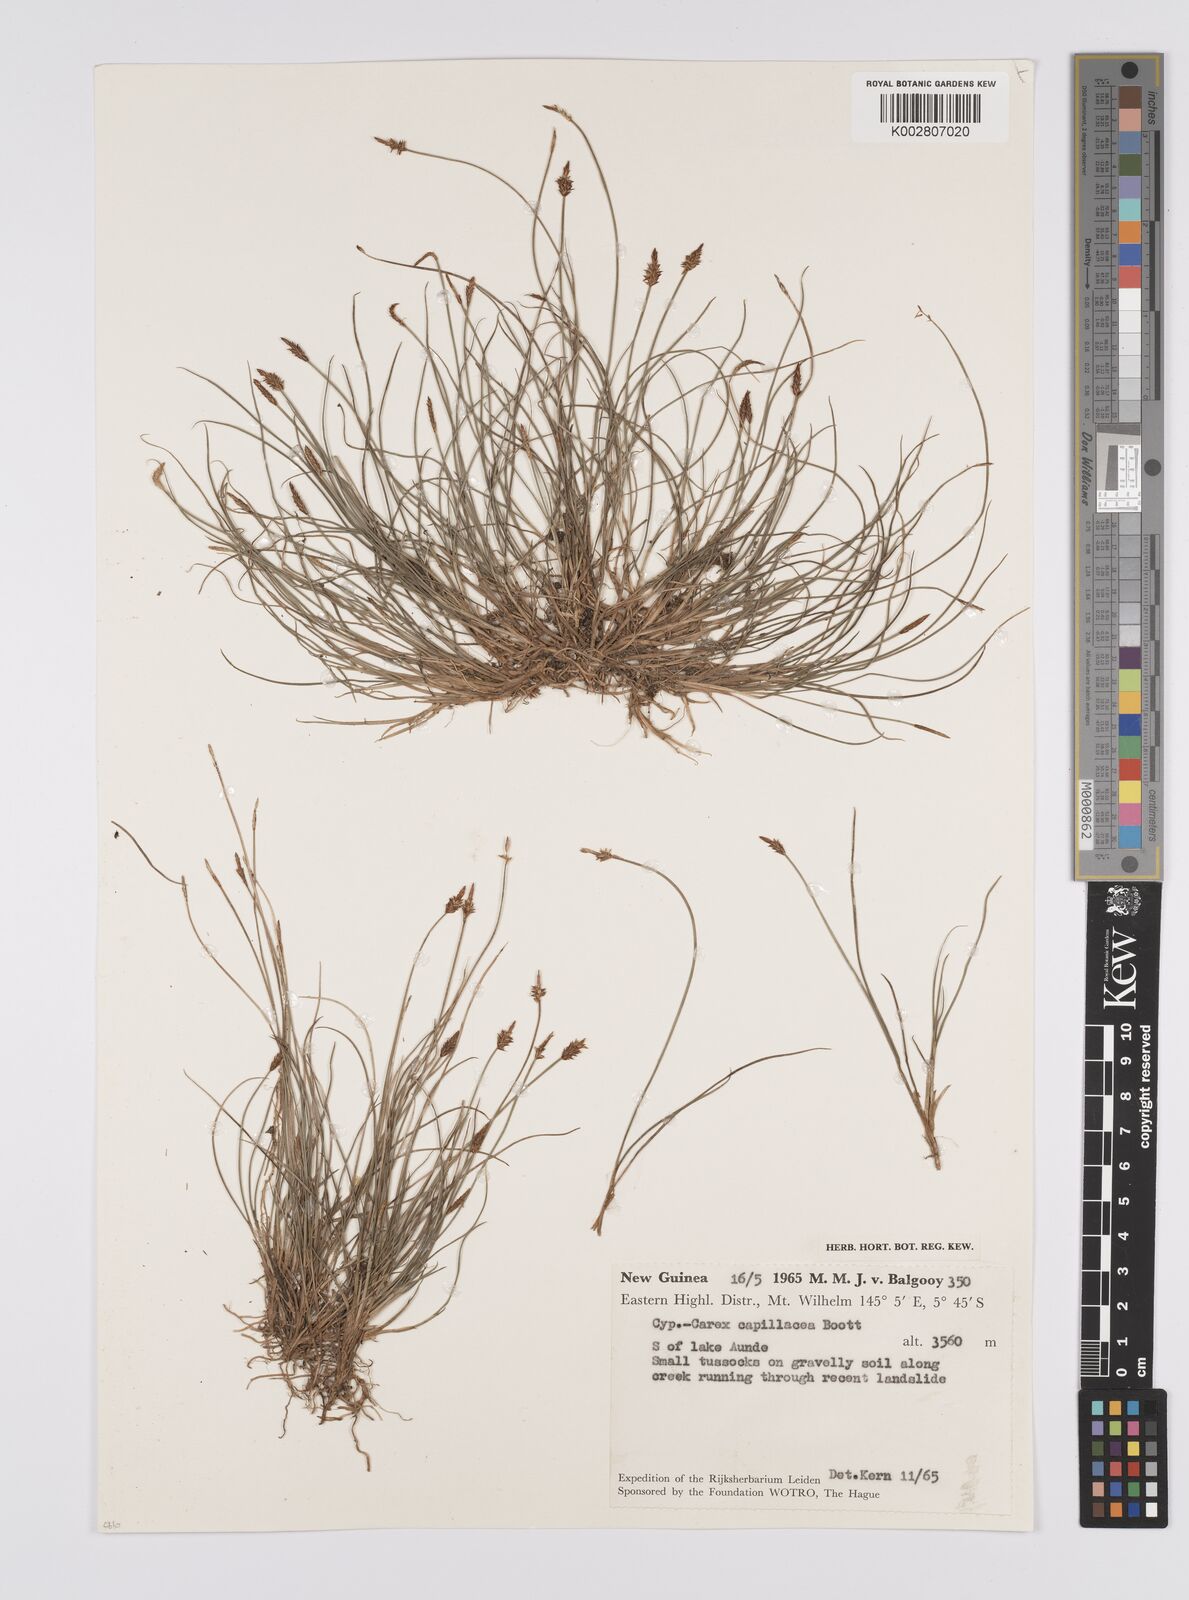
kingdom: Plantae
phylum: Tracheophyta
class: Liliopsida
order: Poales
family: Cyperaceae
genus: Carex
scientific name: Carex capillacea
